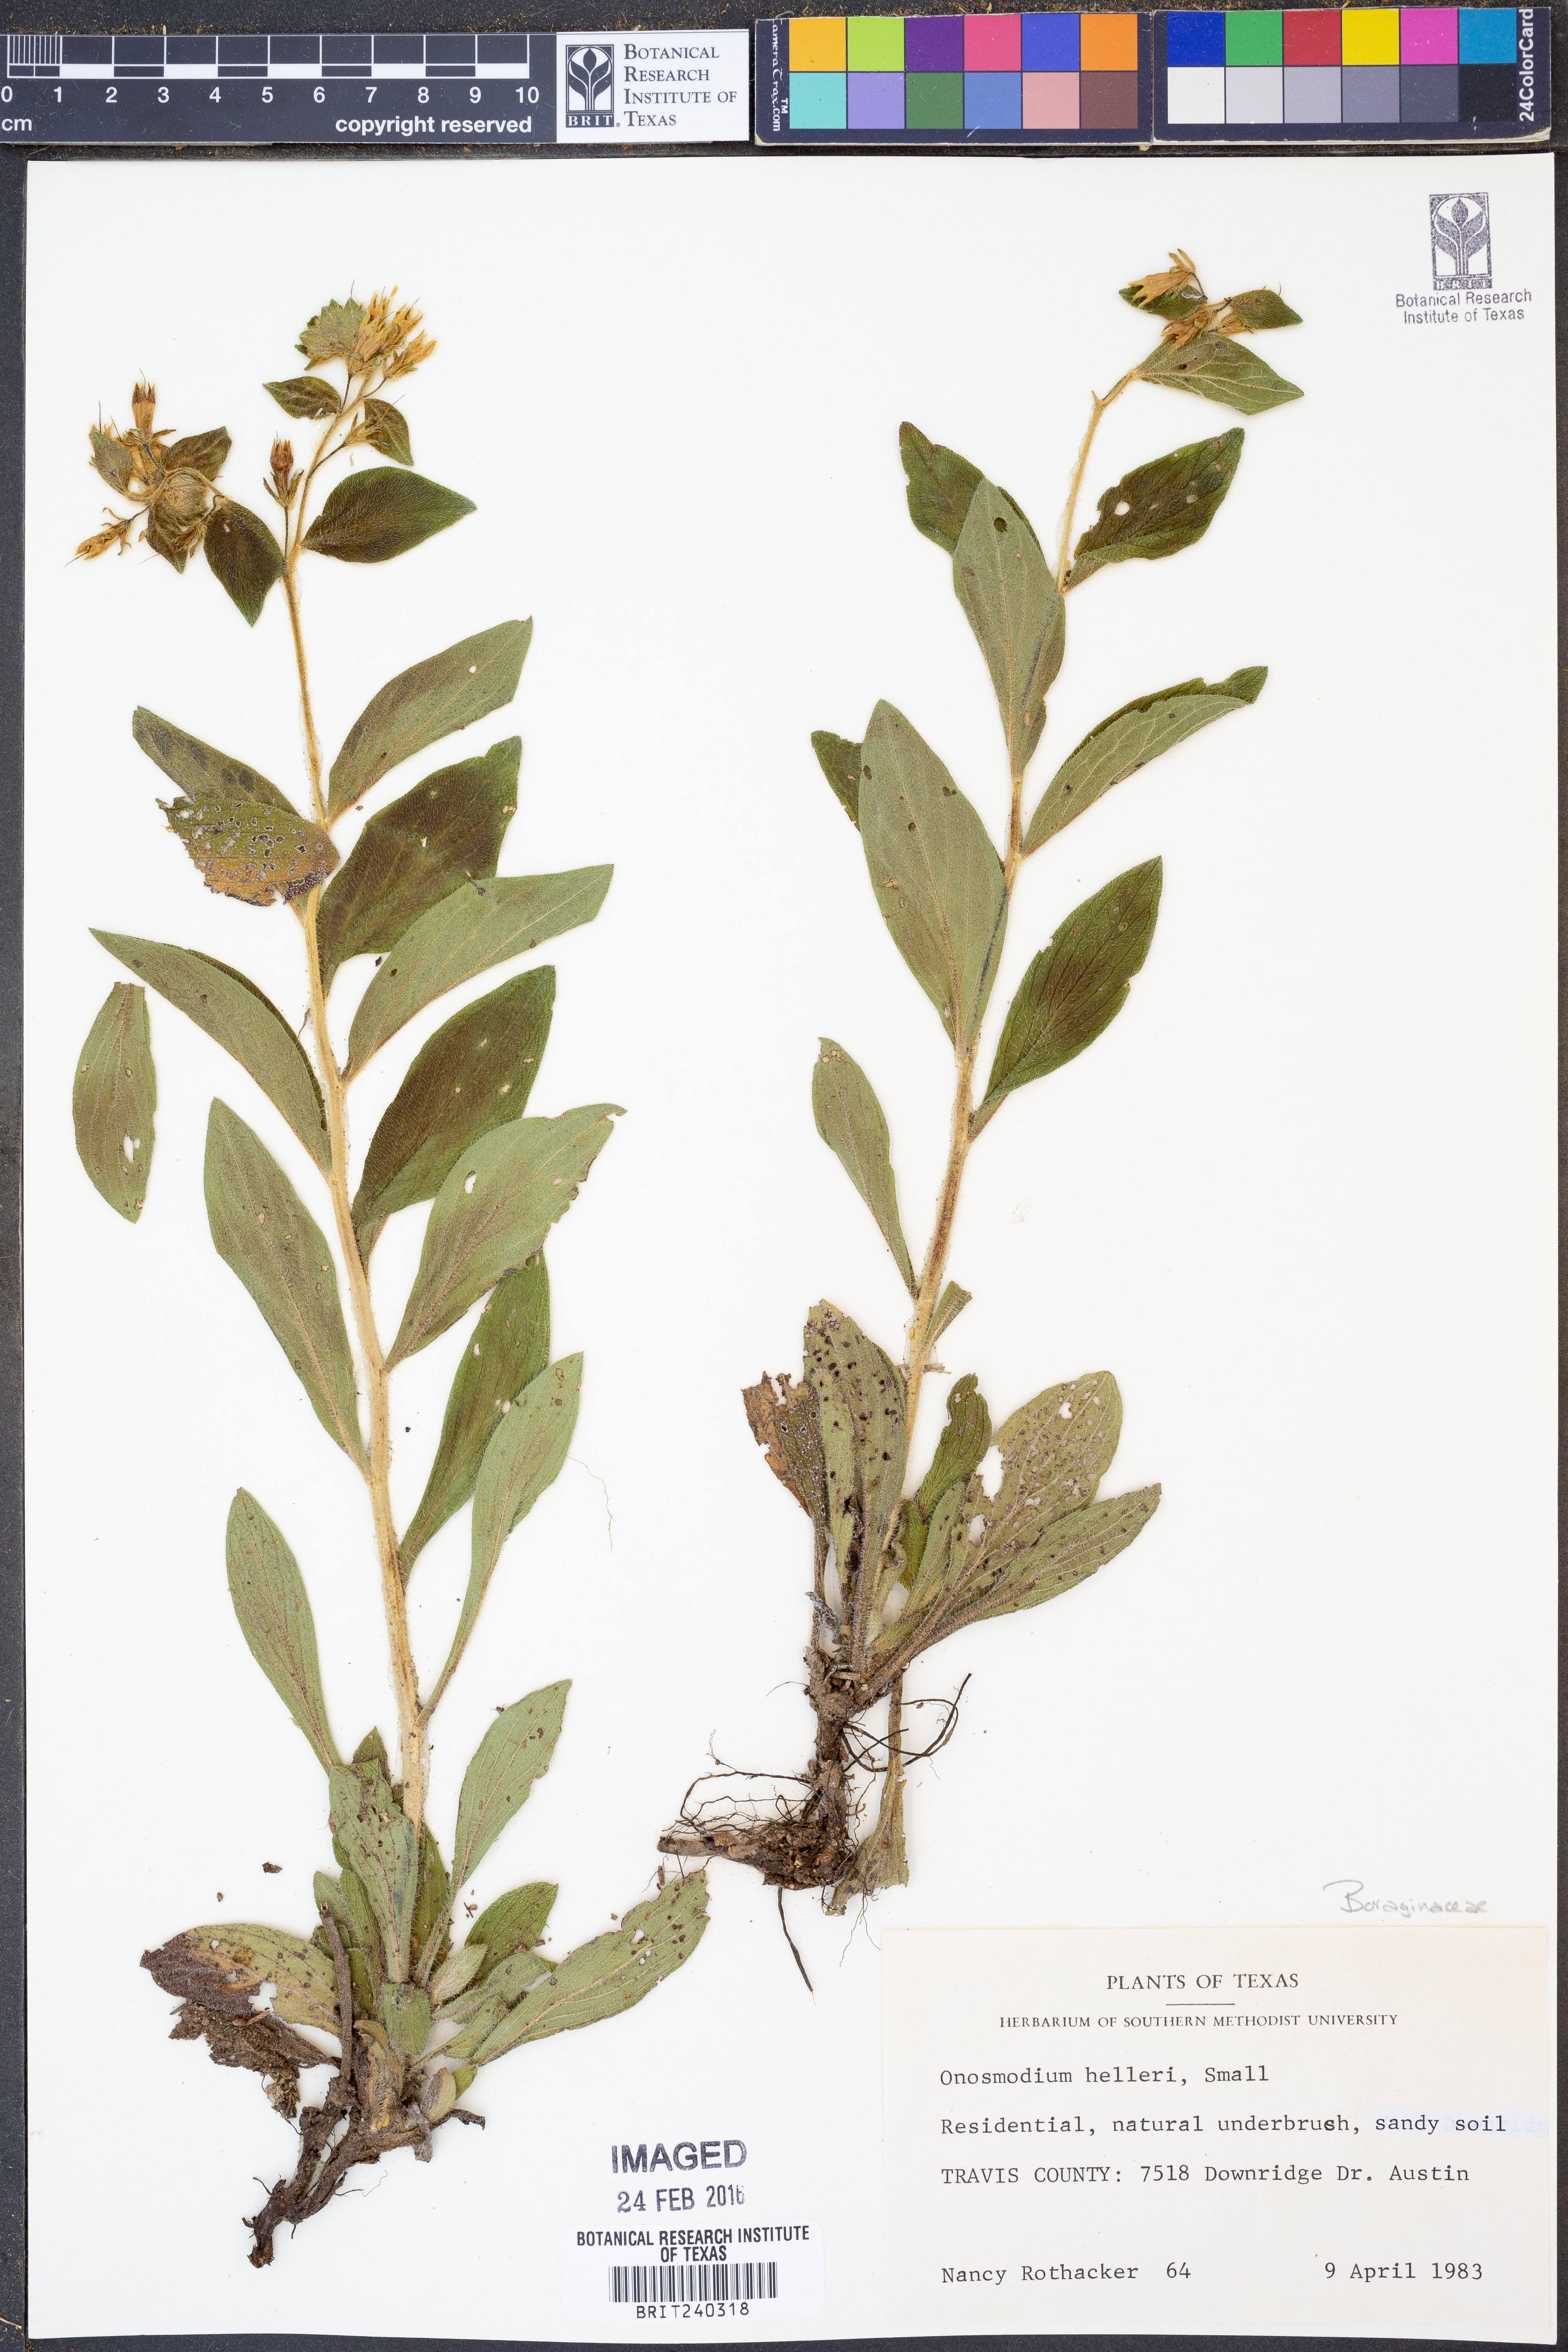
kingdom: Plantae
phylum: Tracheophyta
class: Magnoliopsida
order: Boraginales
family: Boraginaceae
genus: Lithospermum
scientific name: Lithospermum helleri
